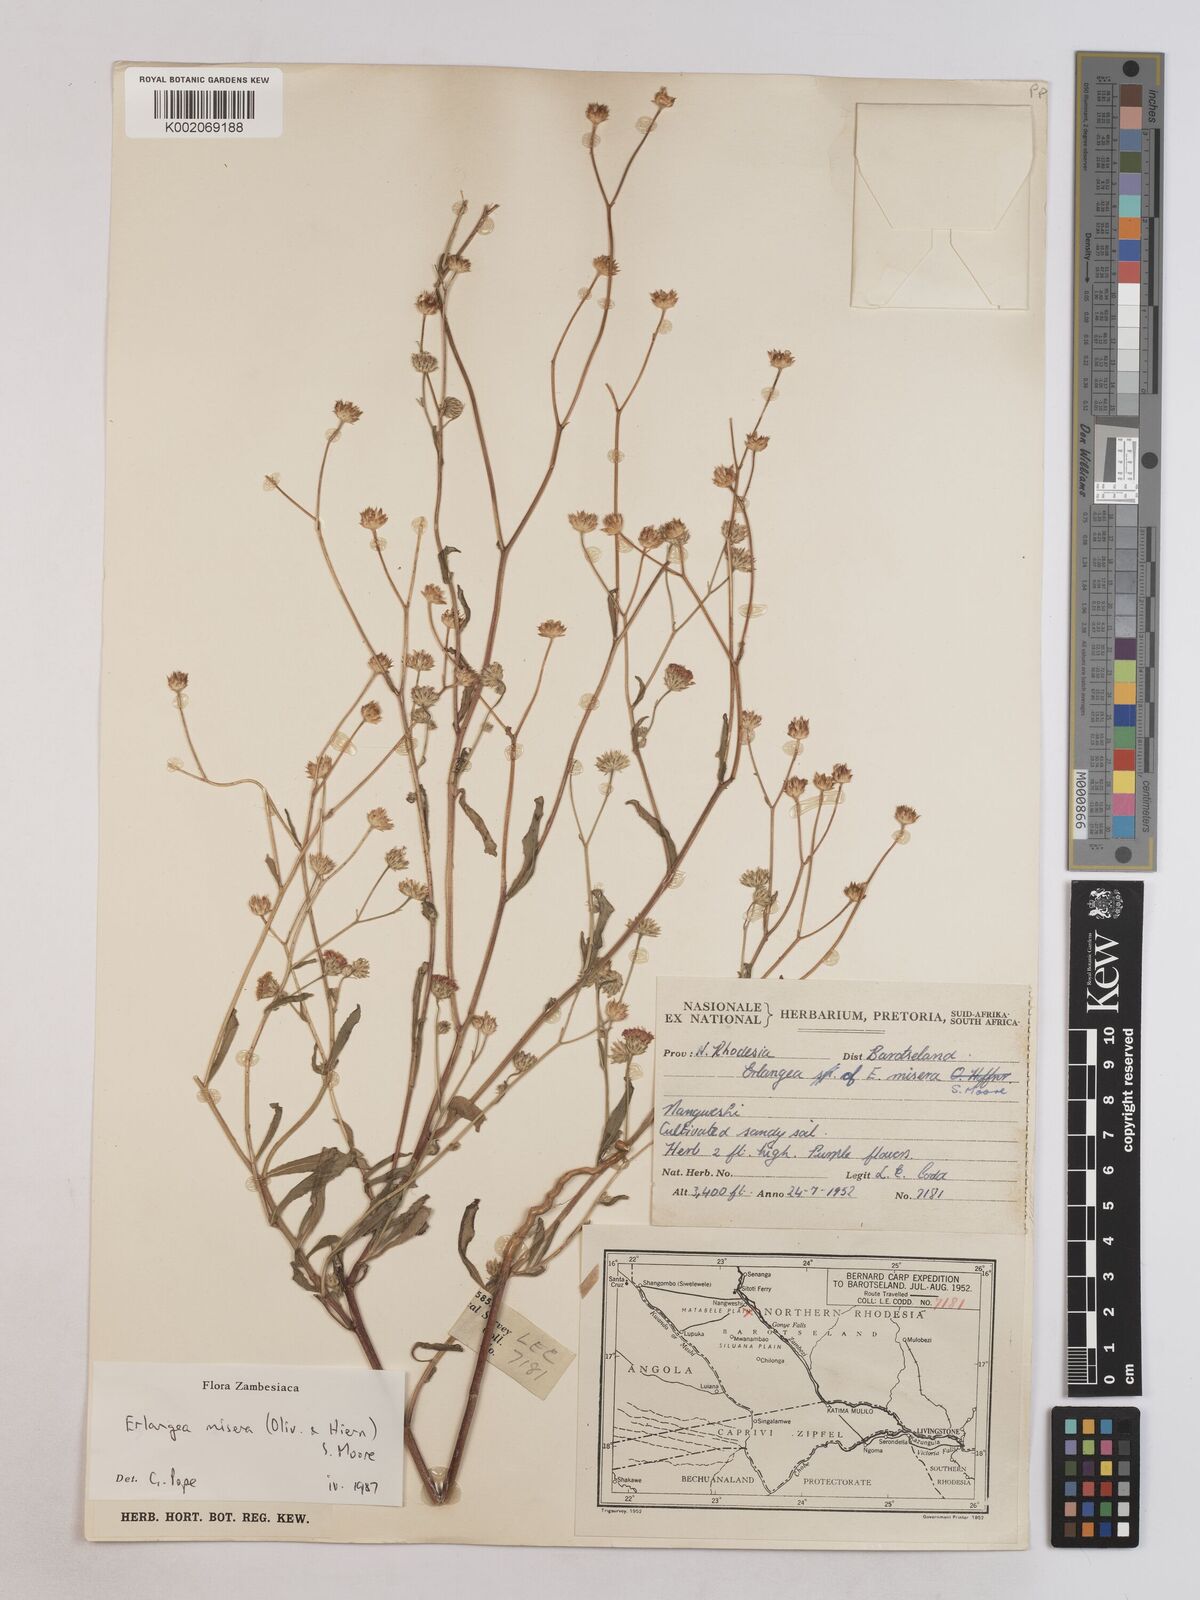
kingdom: Plantae
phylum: Tracheophyta
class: Magnoliopsida
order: Asterales
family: Asteraceae
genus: Erlangea
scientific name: Erlangea misera
